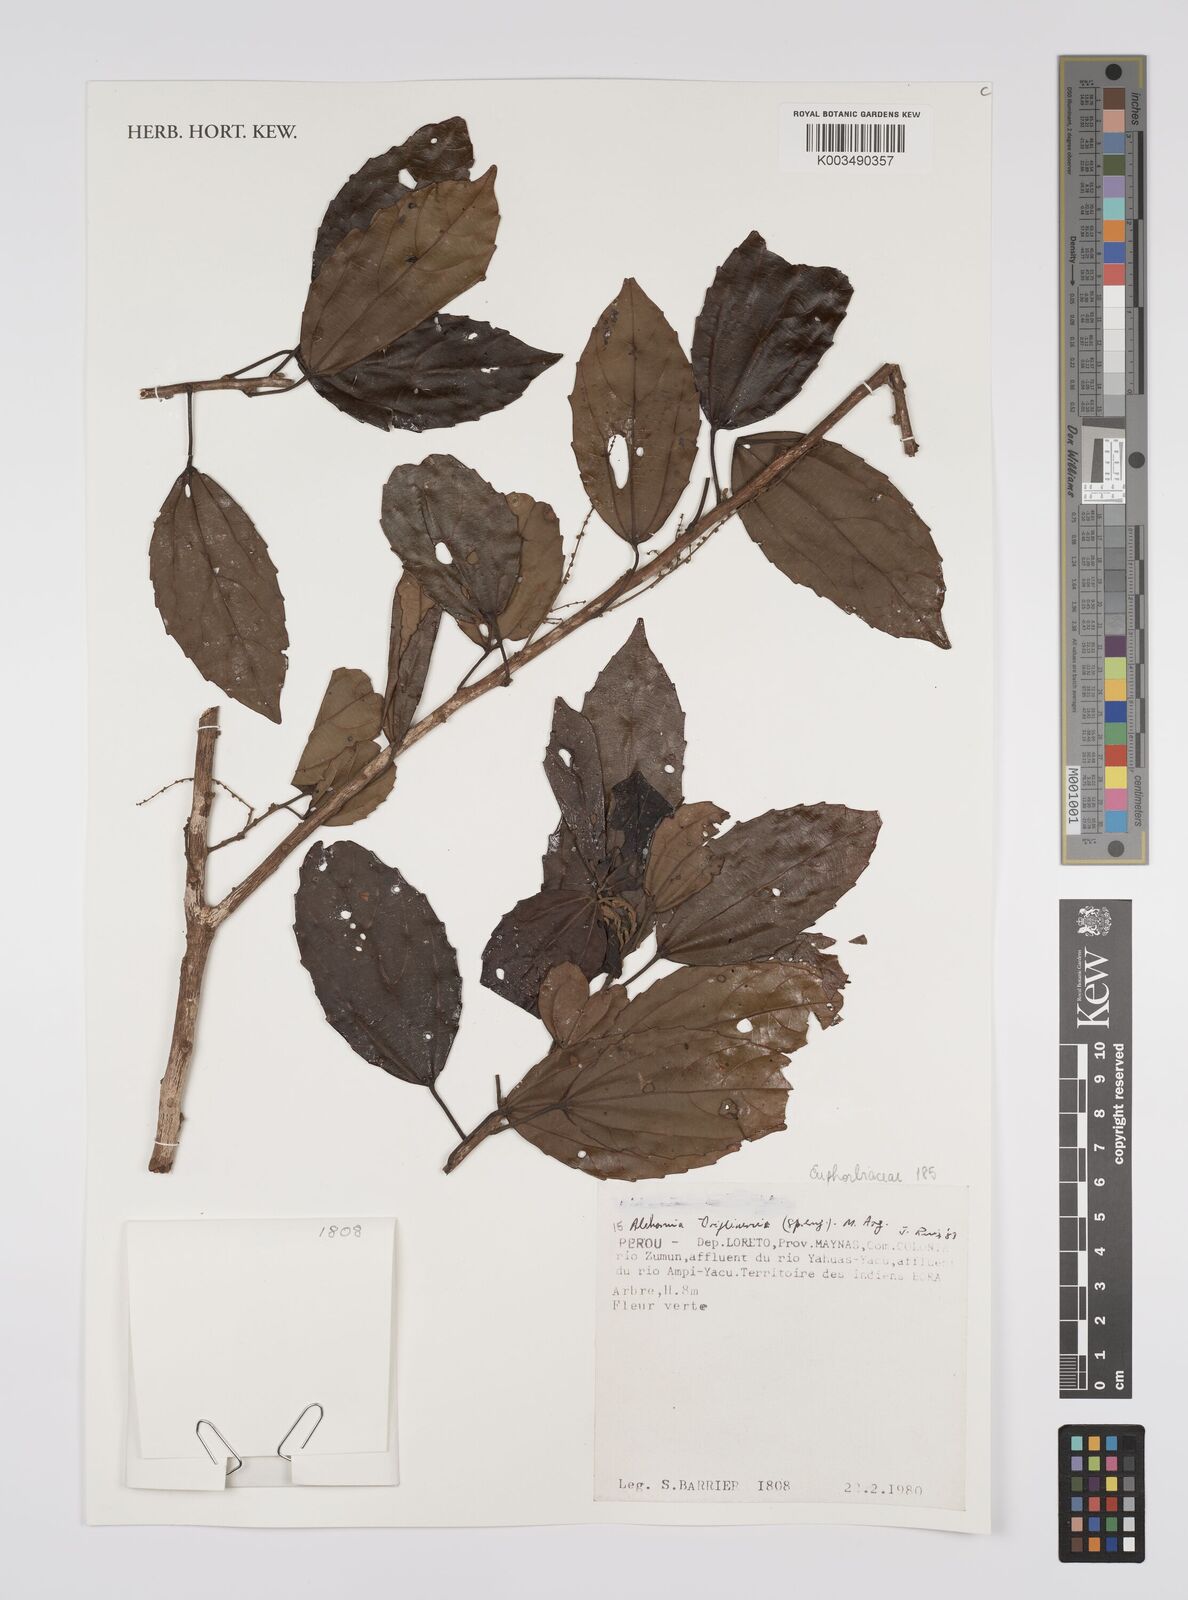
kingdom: Plantae
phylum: Tracheophyta
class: Magnoliopsida
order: Malpighiales
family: Euphorbiaceae
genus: Alchornea
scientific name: Alchornea triplinervia
